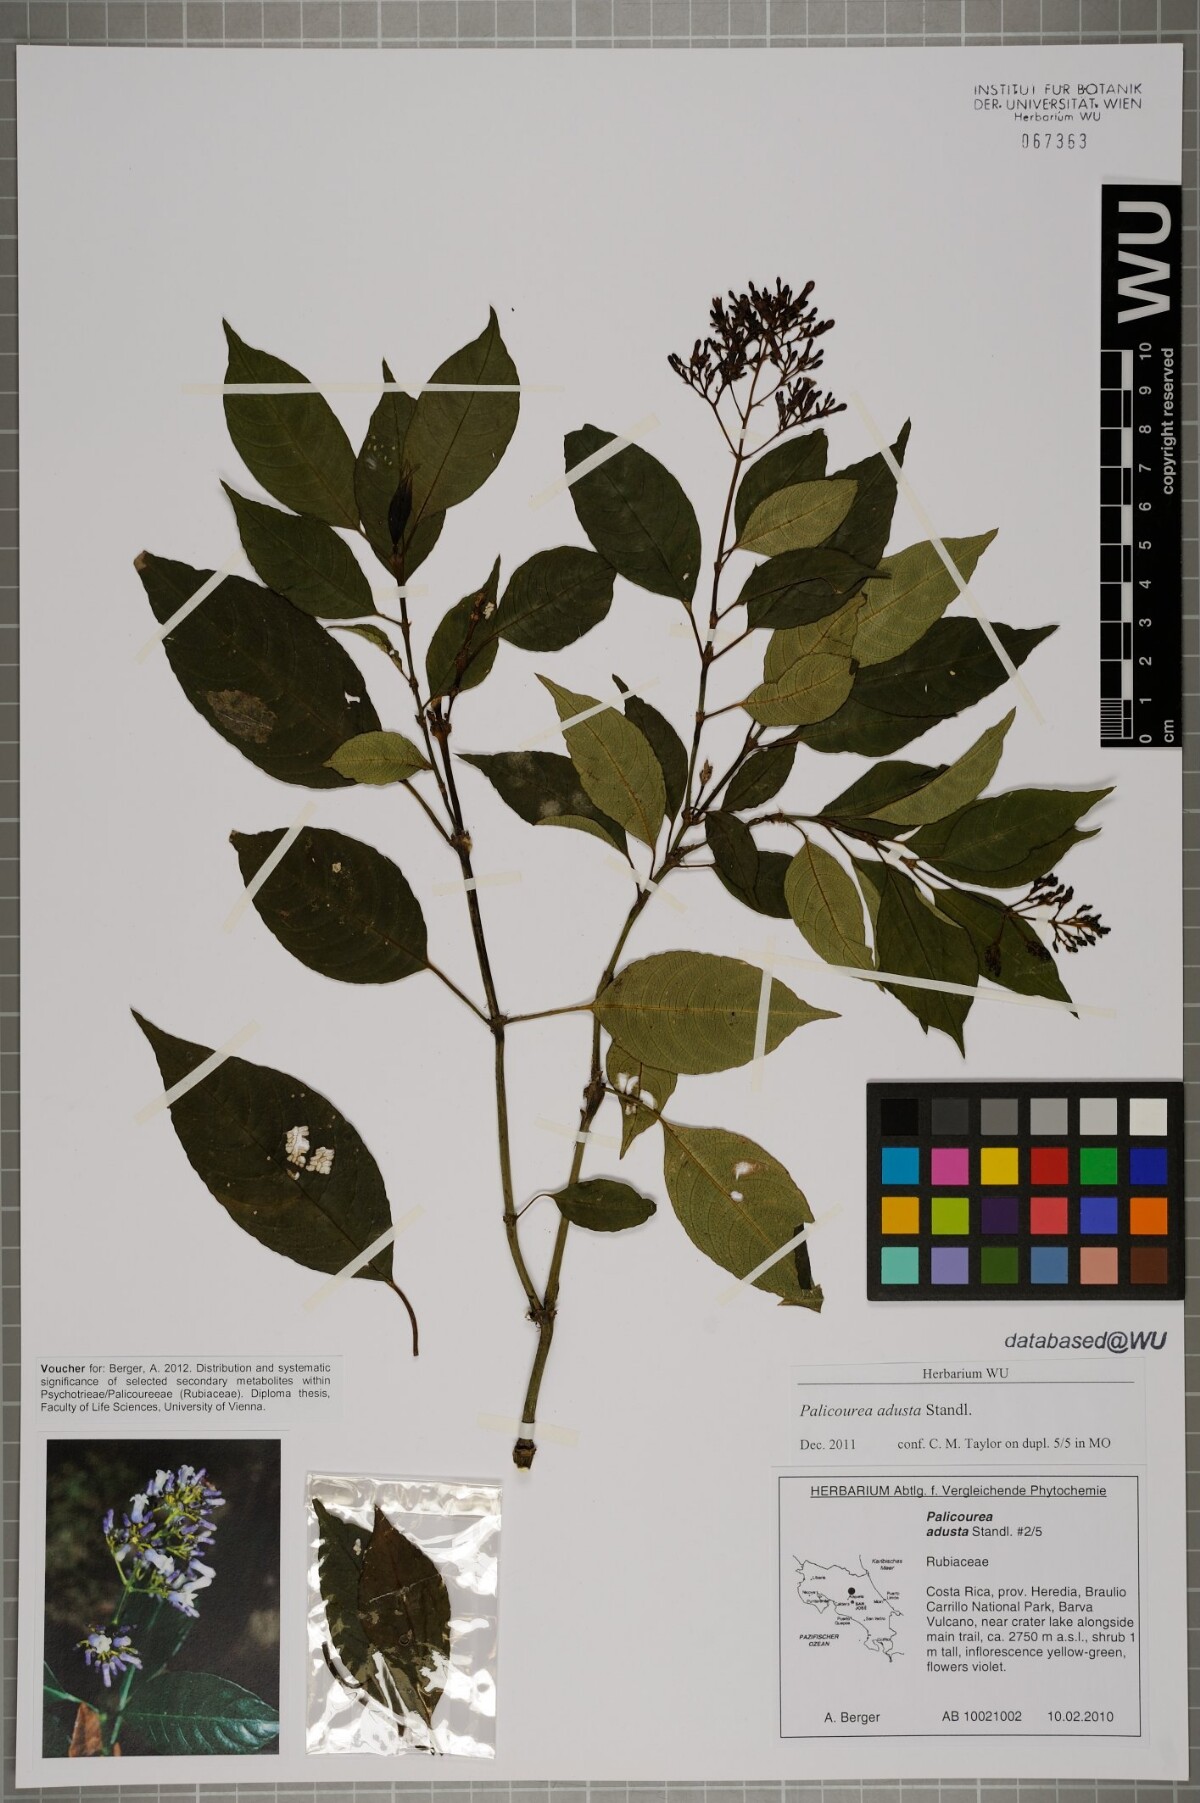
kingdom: Plantae
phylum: Tracheophyta
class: Magnoliopsida
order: Gentianales
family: Rubiaceae
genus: Palicourea
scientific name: Palicourea adusta
